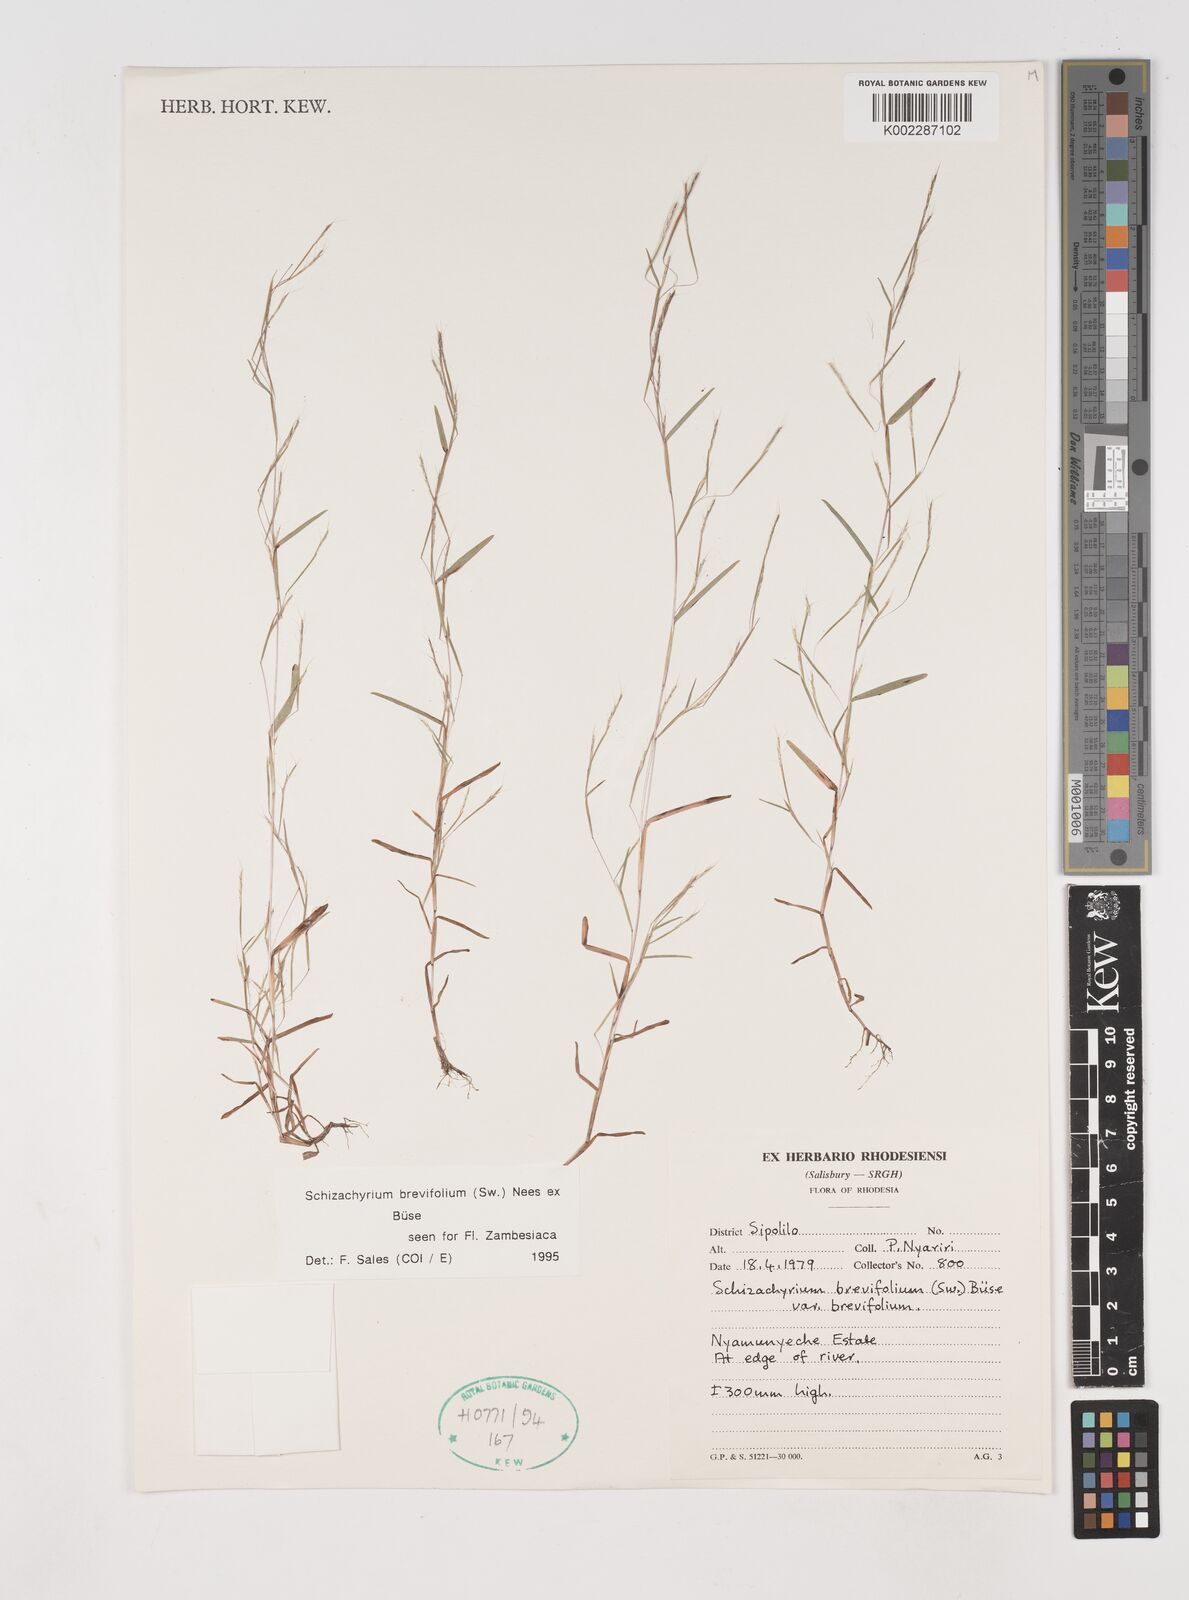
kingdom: Plantae
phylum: Tracheophyta
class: Liliopsida
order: Poales
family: Poaceae
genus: Schizachyrium
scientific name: Schizachyrium brevifolium
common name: Serillo dulce
